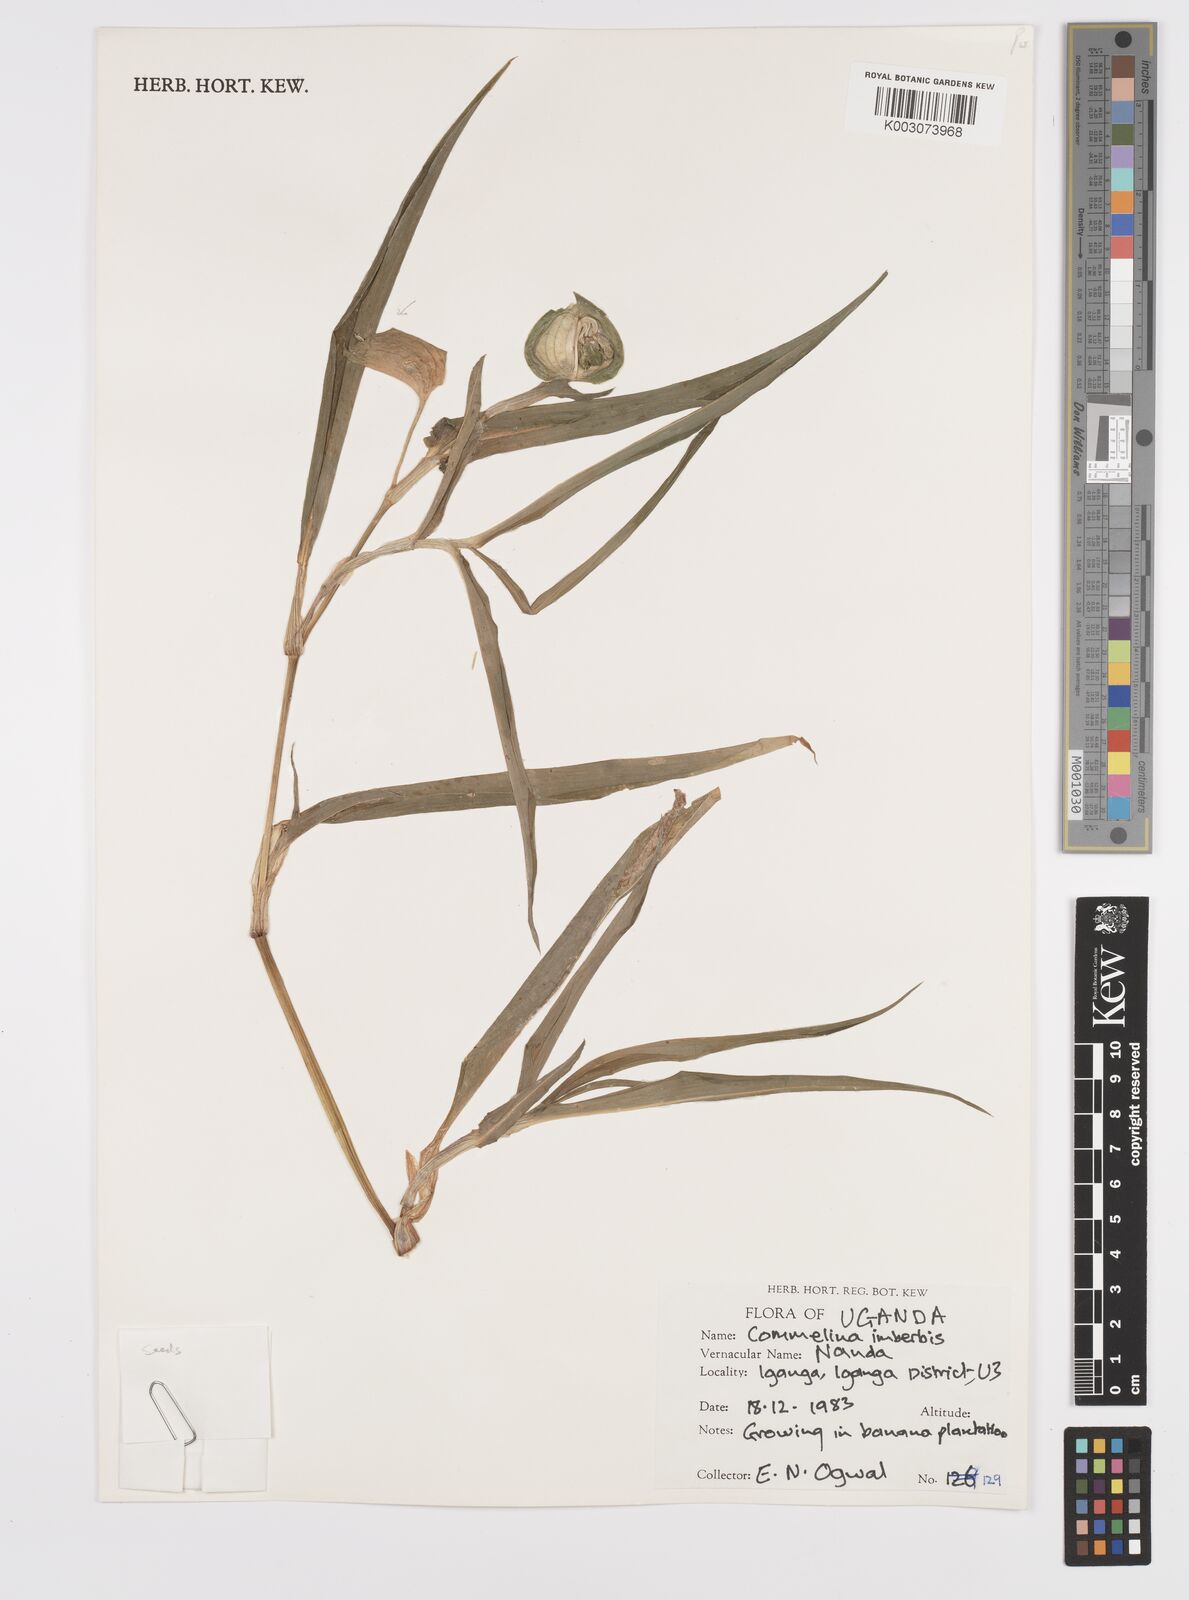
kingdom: Plantae
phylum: Tracheophyta
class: Liliopsida
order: Commelinales
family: Commelinaceae
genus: Commelina
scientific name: Commelina imberbis
